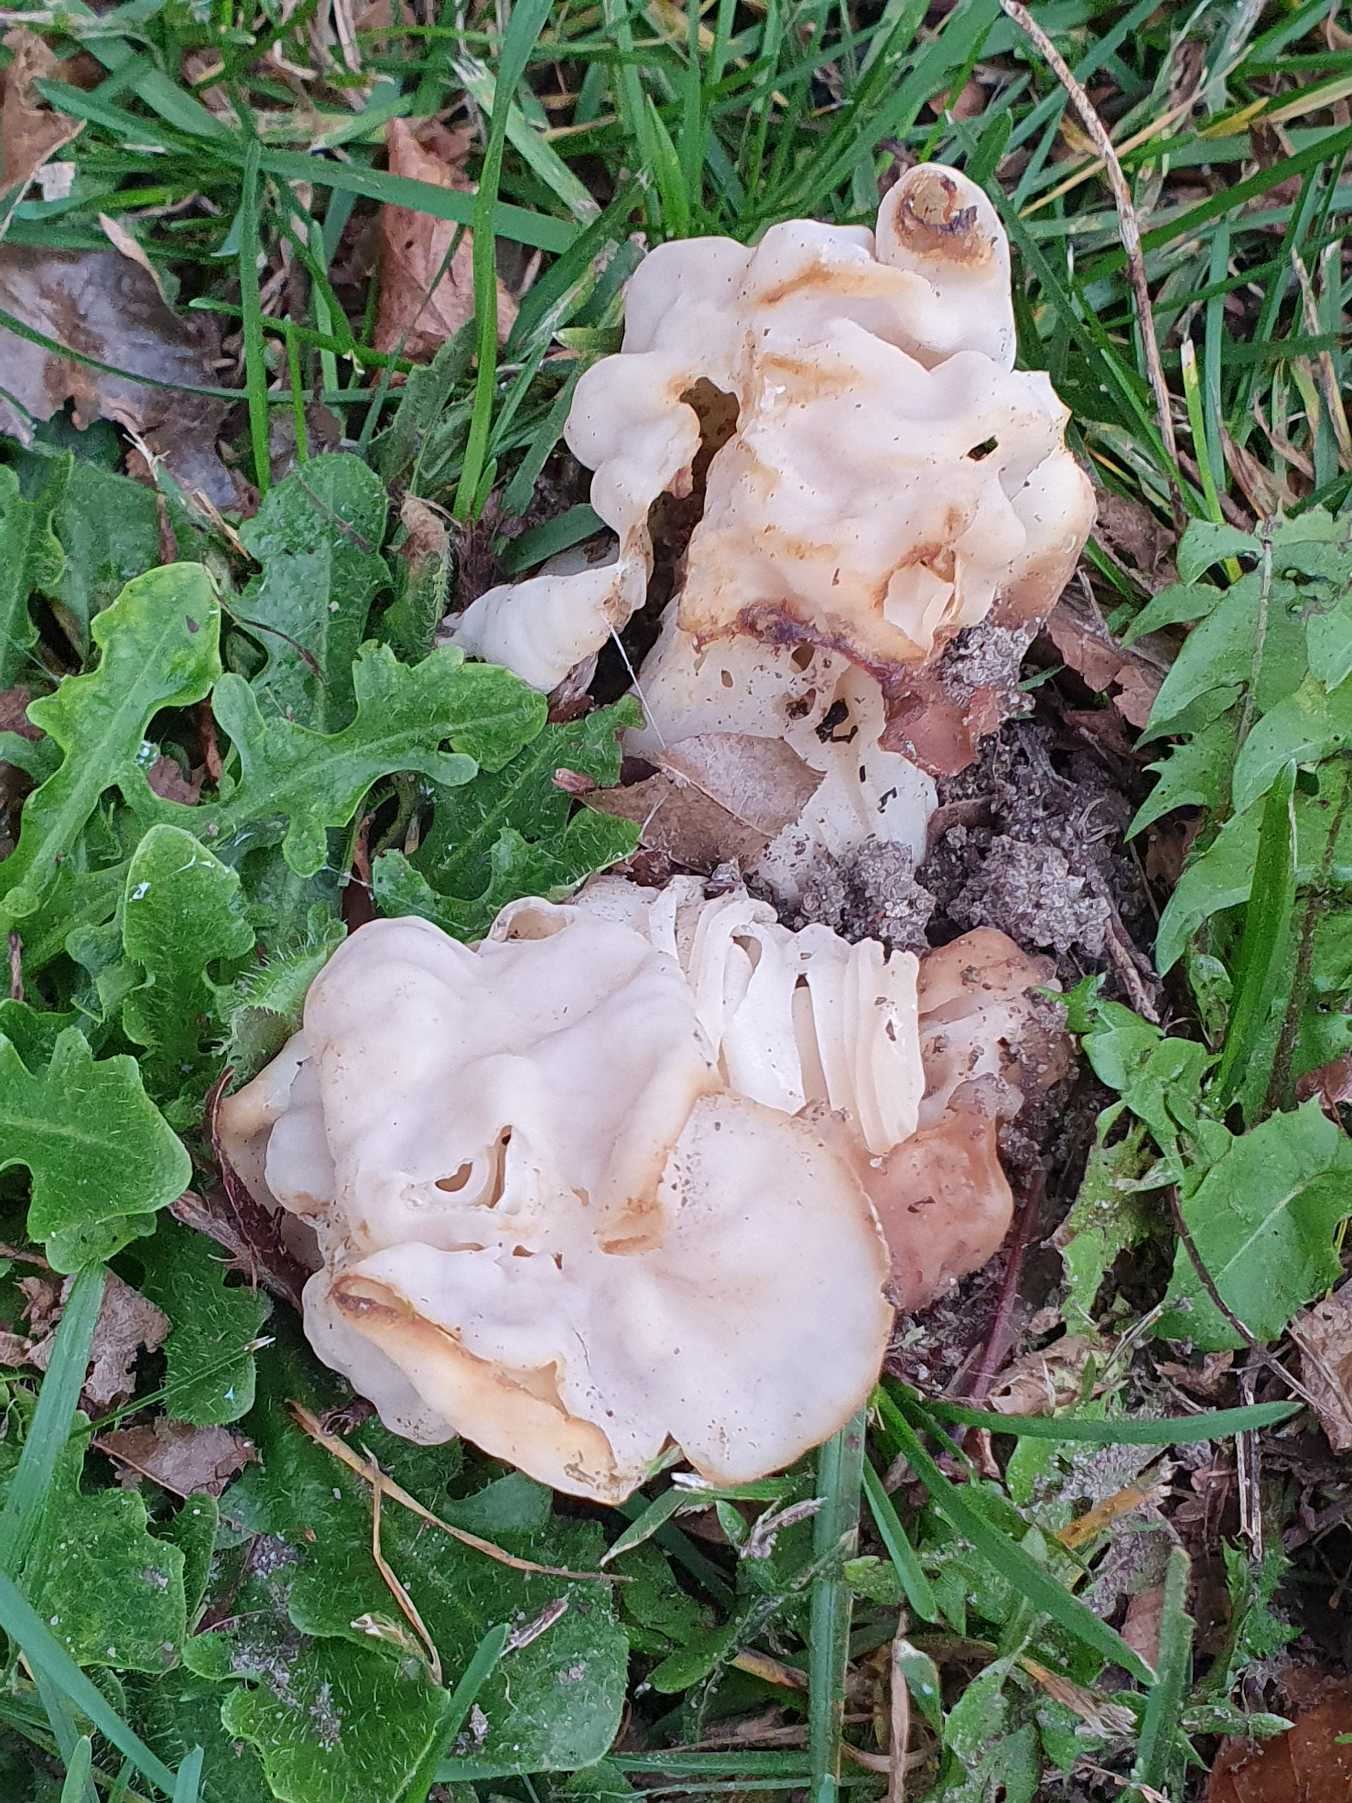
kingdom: Fungi
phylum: Ascomycota
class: Pezizomycetes
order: Pezizales
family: Helvellaceae
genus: Helvella
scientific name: Helvella crispa
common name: Kruset foldhat
